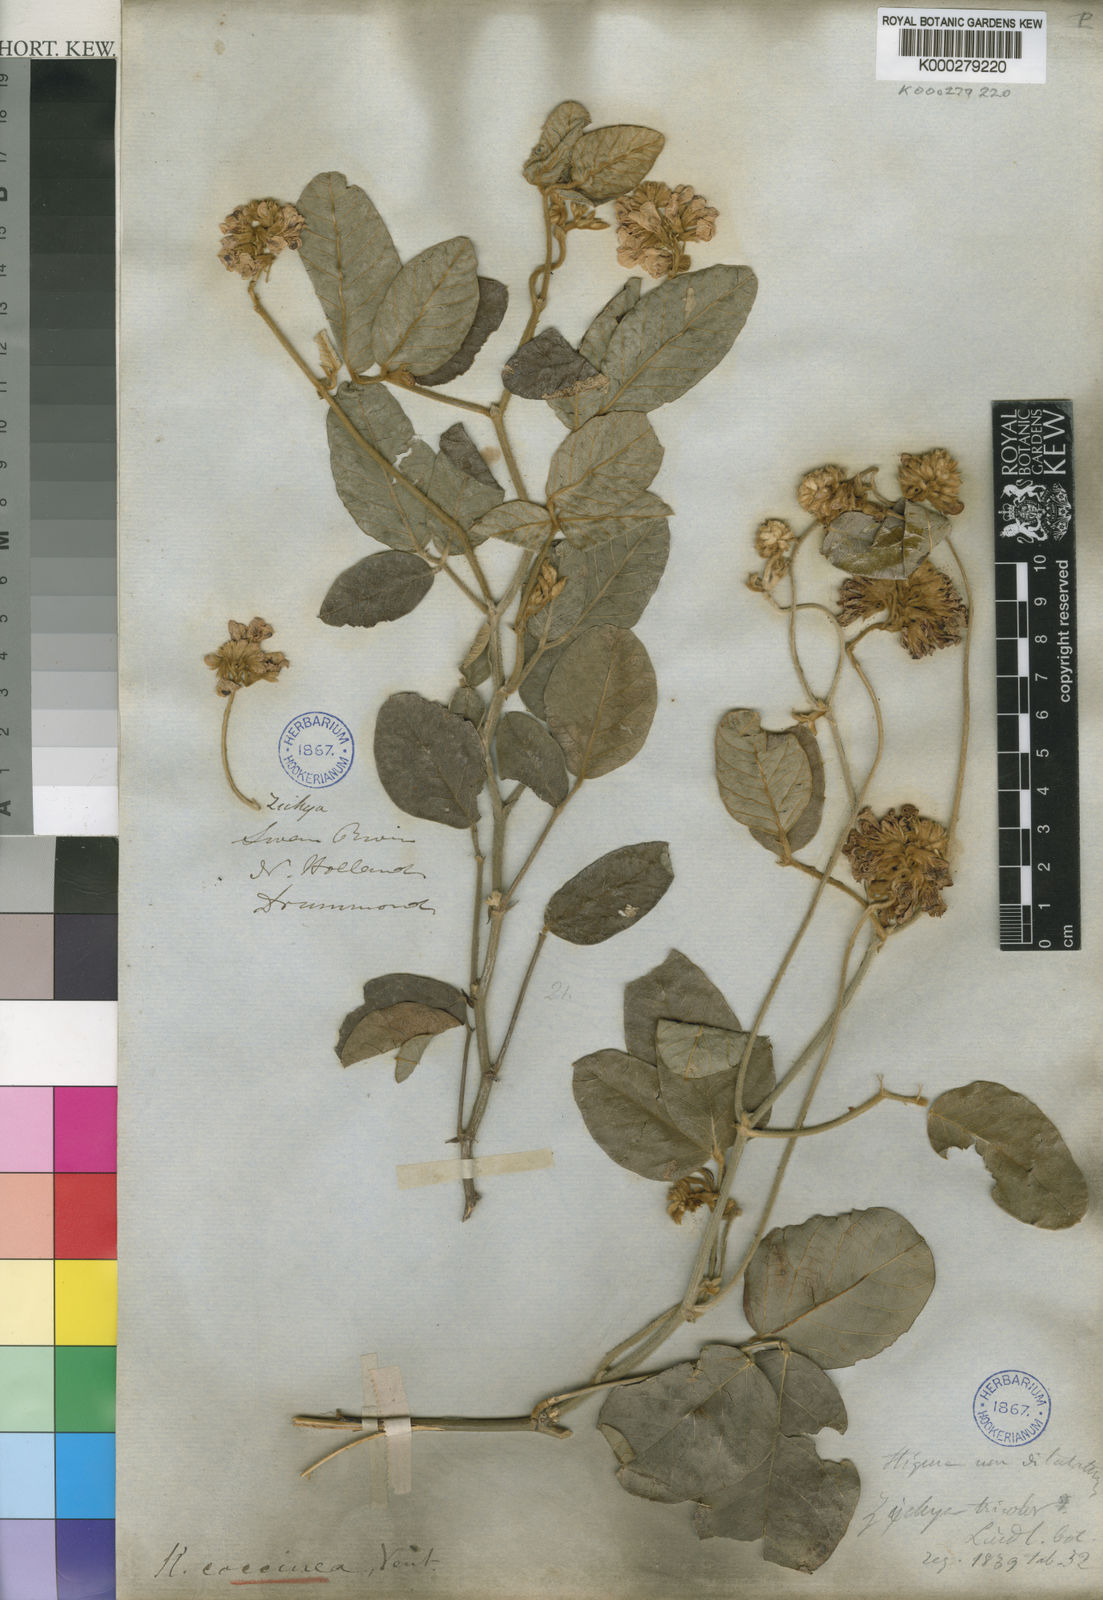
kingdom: Plantae
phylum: Tracheophyta
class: Magnoliopsida
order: Fabales
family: Fabaceae
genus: Kennedia
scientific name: Kennedia coccinea
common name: Coralvine
